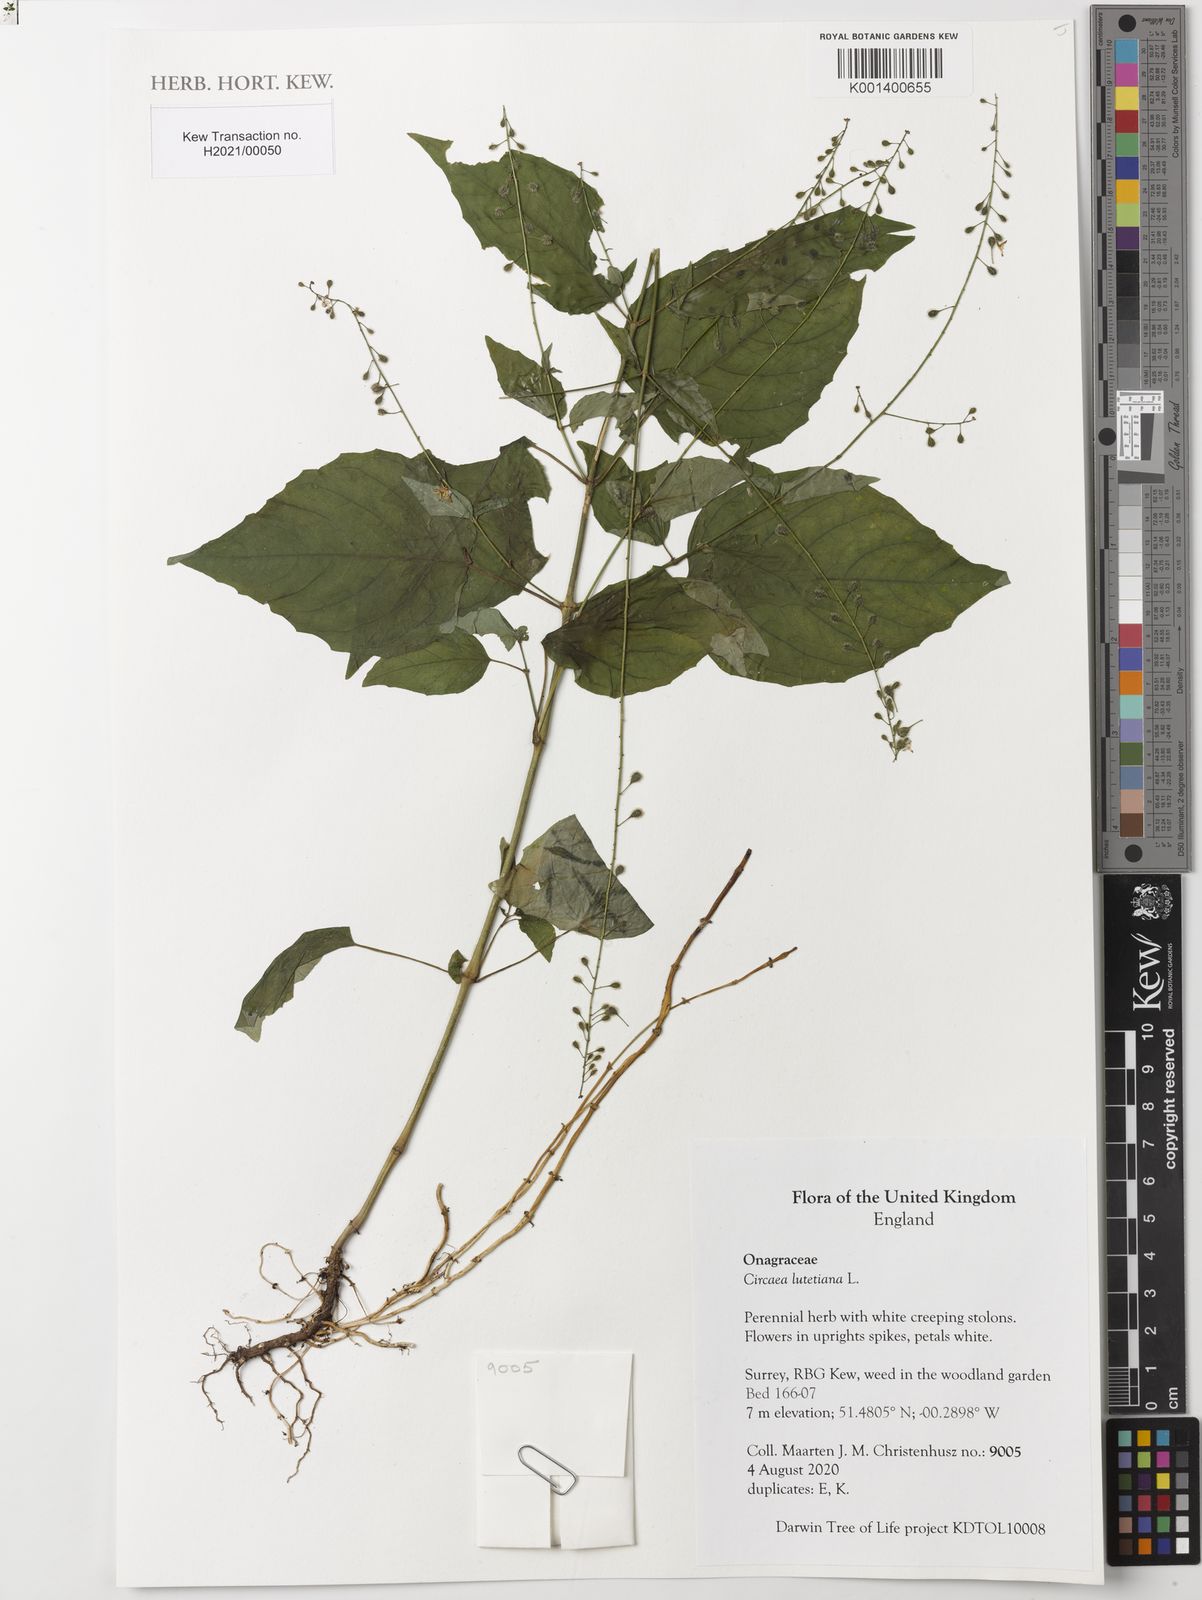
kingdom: Plantae
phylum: Tracheophyta
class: Magnoliopsida
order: Myrtales
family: Onagraceae
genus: Circaea
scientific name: Circaea lutetiana
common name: Enchanter's-nightshade
